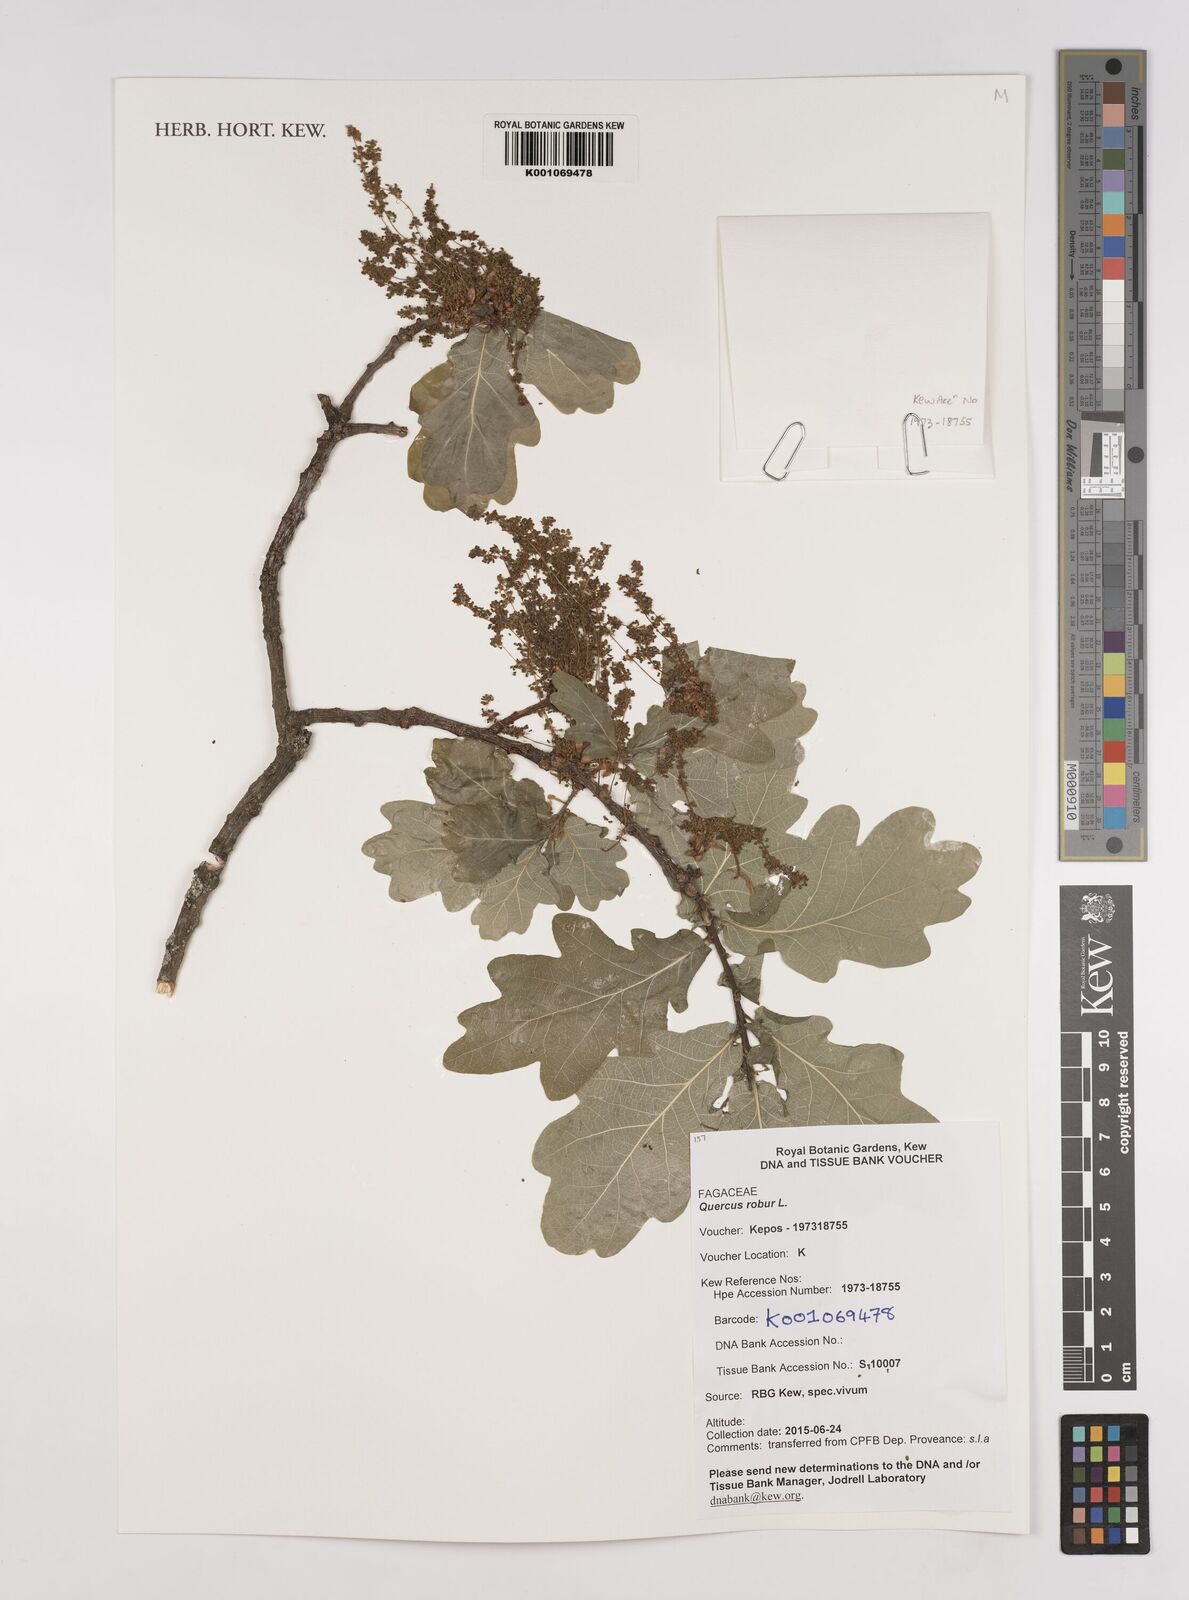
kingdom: Plantae
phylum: Tracheophyta
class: Magnoliopsida
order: Fagales
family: Fagaceae
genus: Quercus
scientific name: Quercus robur
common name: Pedunculate oak
